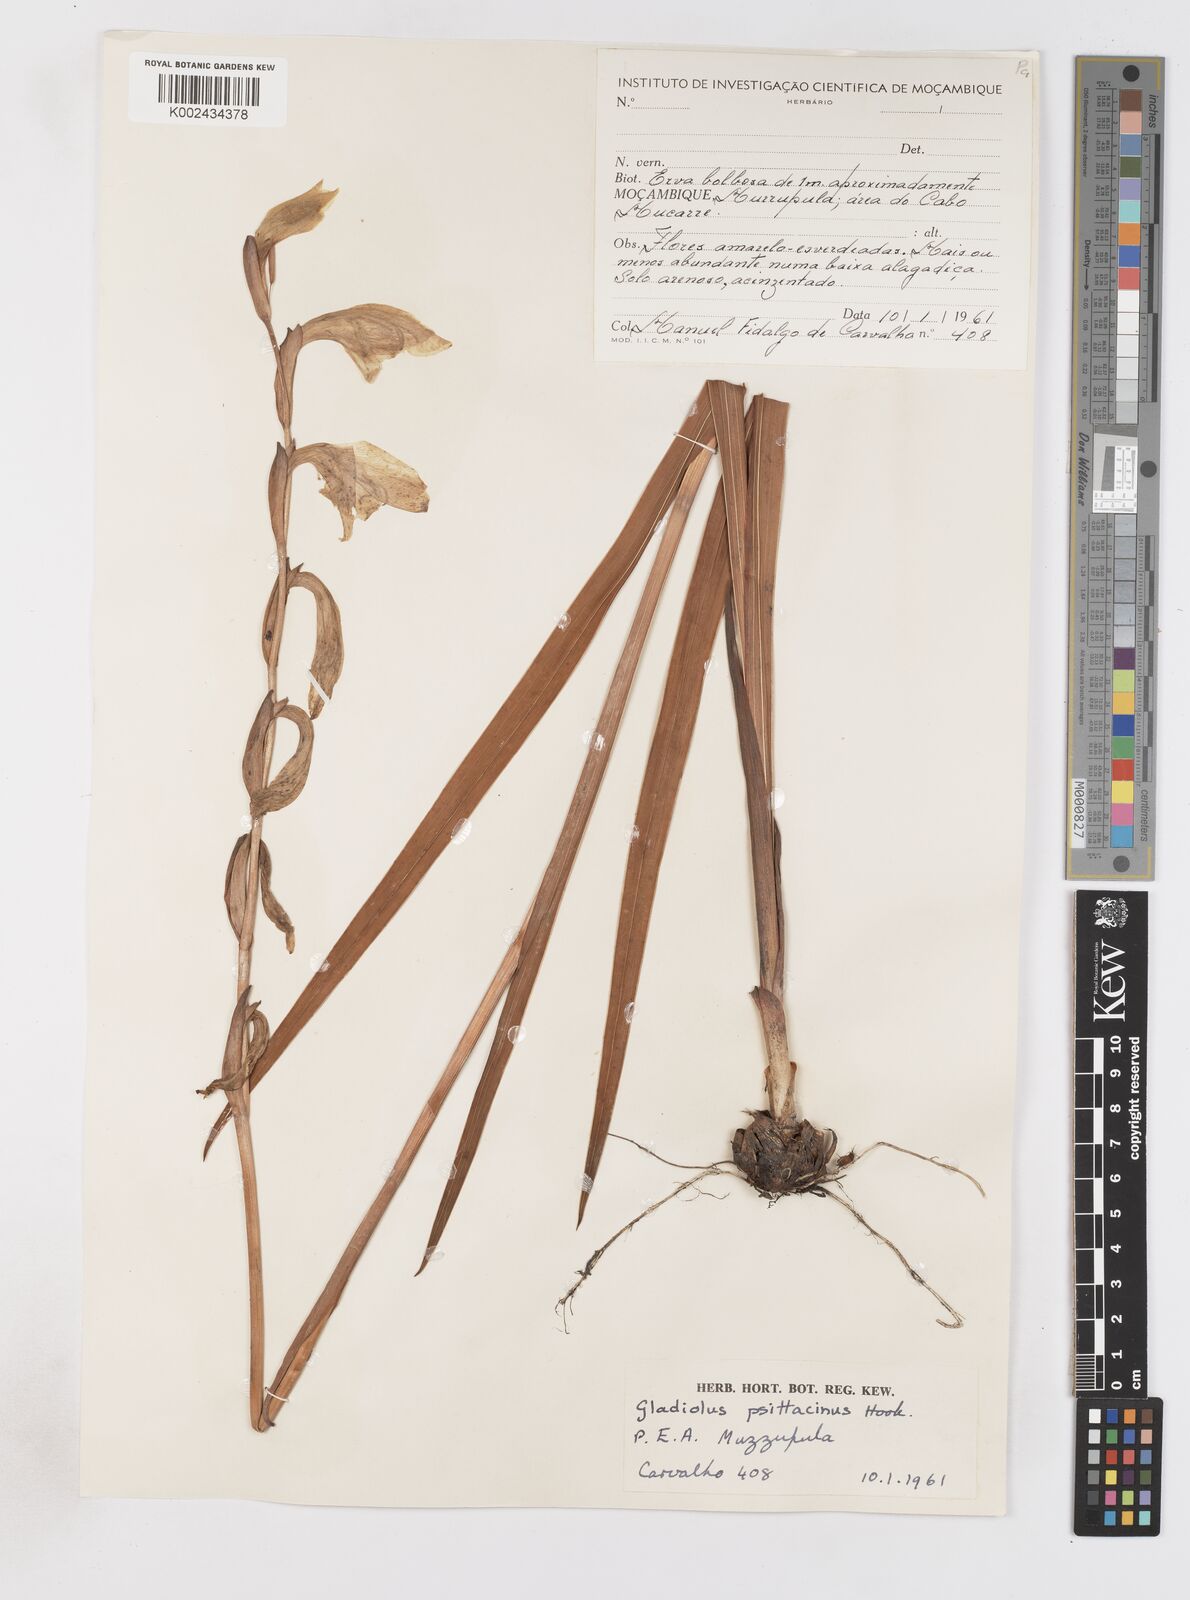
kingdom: Plantae
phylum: Tracheophyta
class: Liliopsida
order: Asparagales
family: Iridaceae
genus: Gladiolus
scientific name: Gladiolus dalenii
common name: Cornflag
